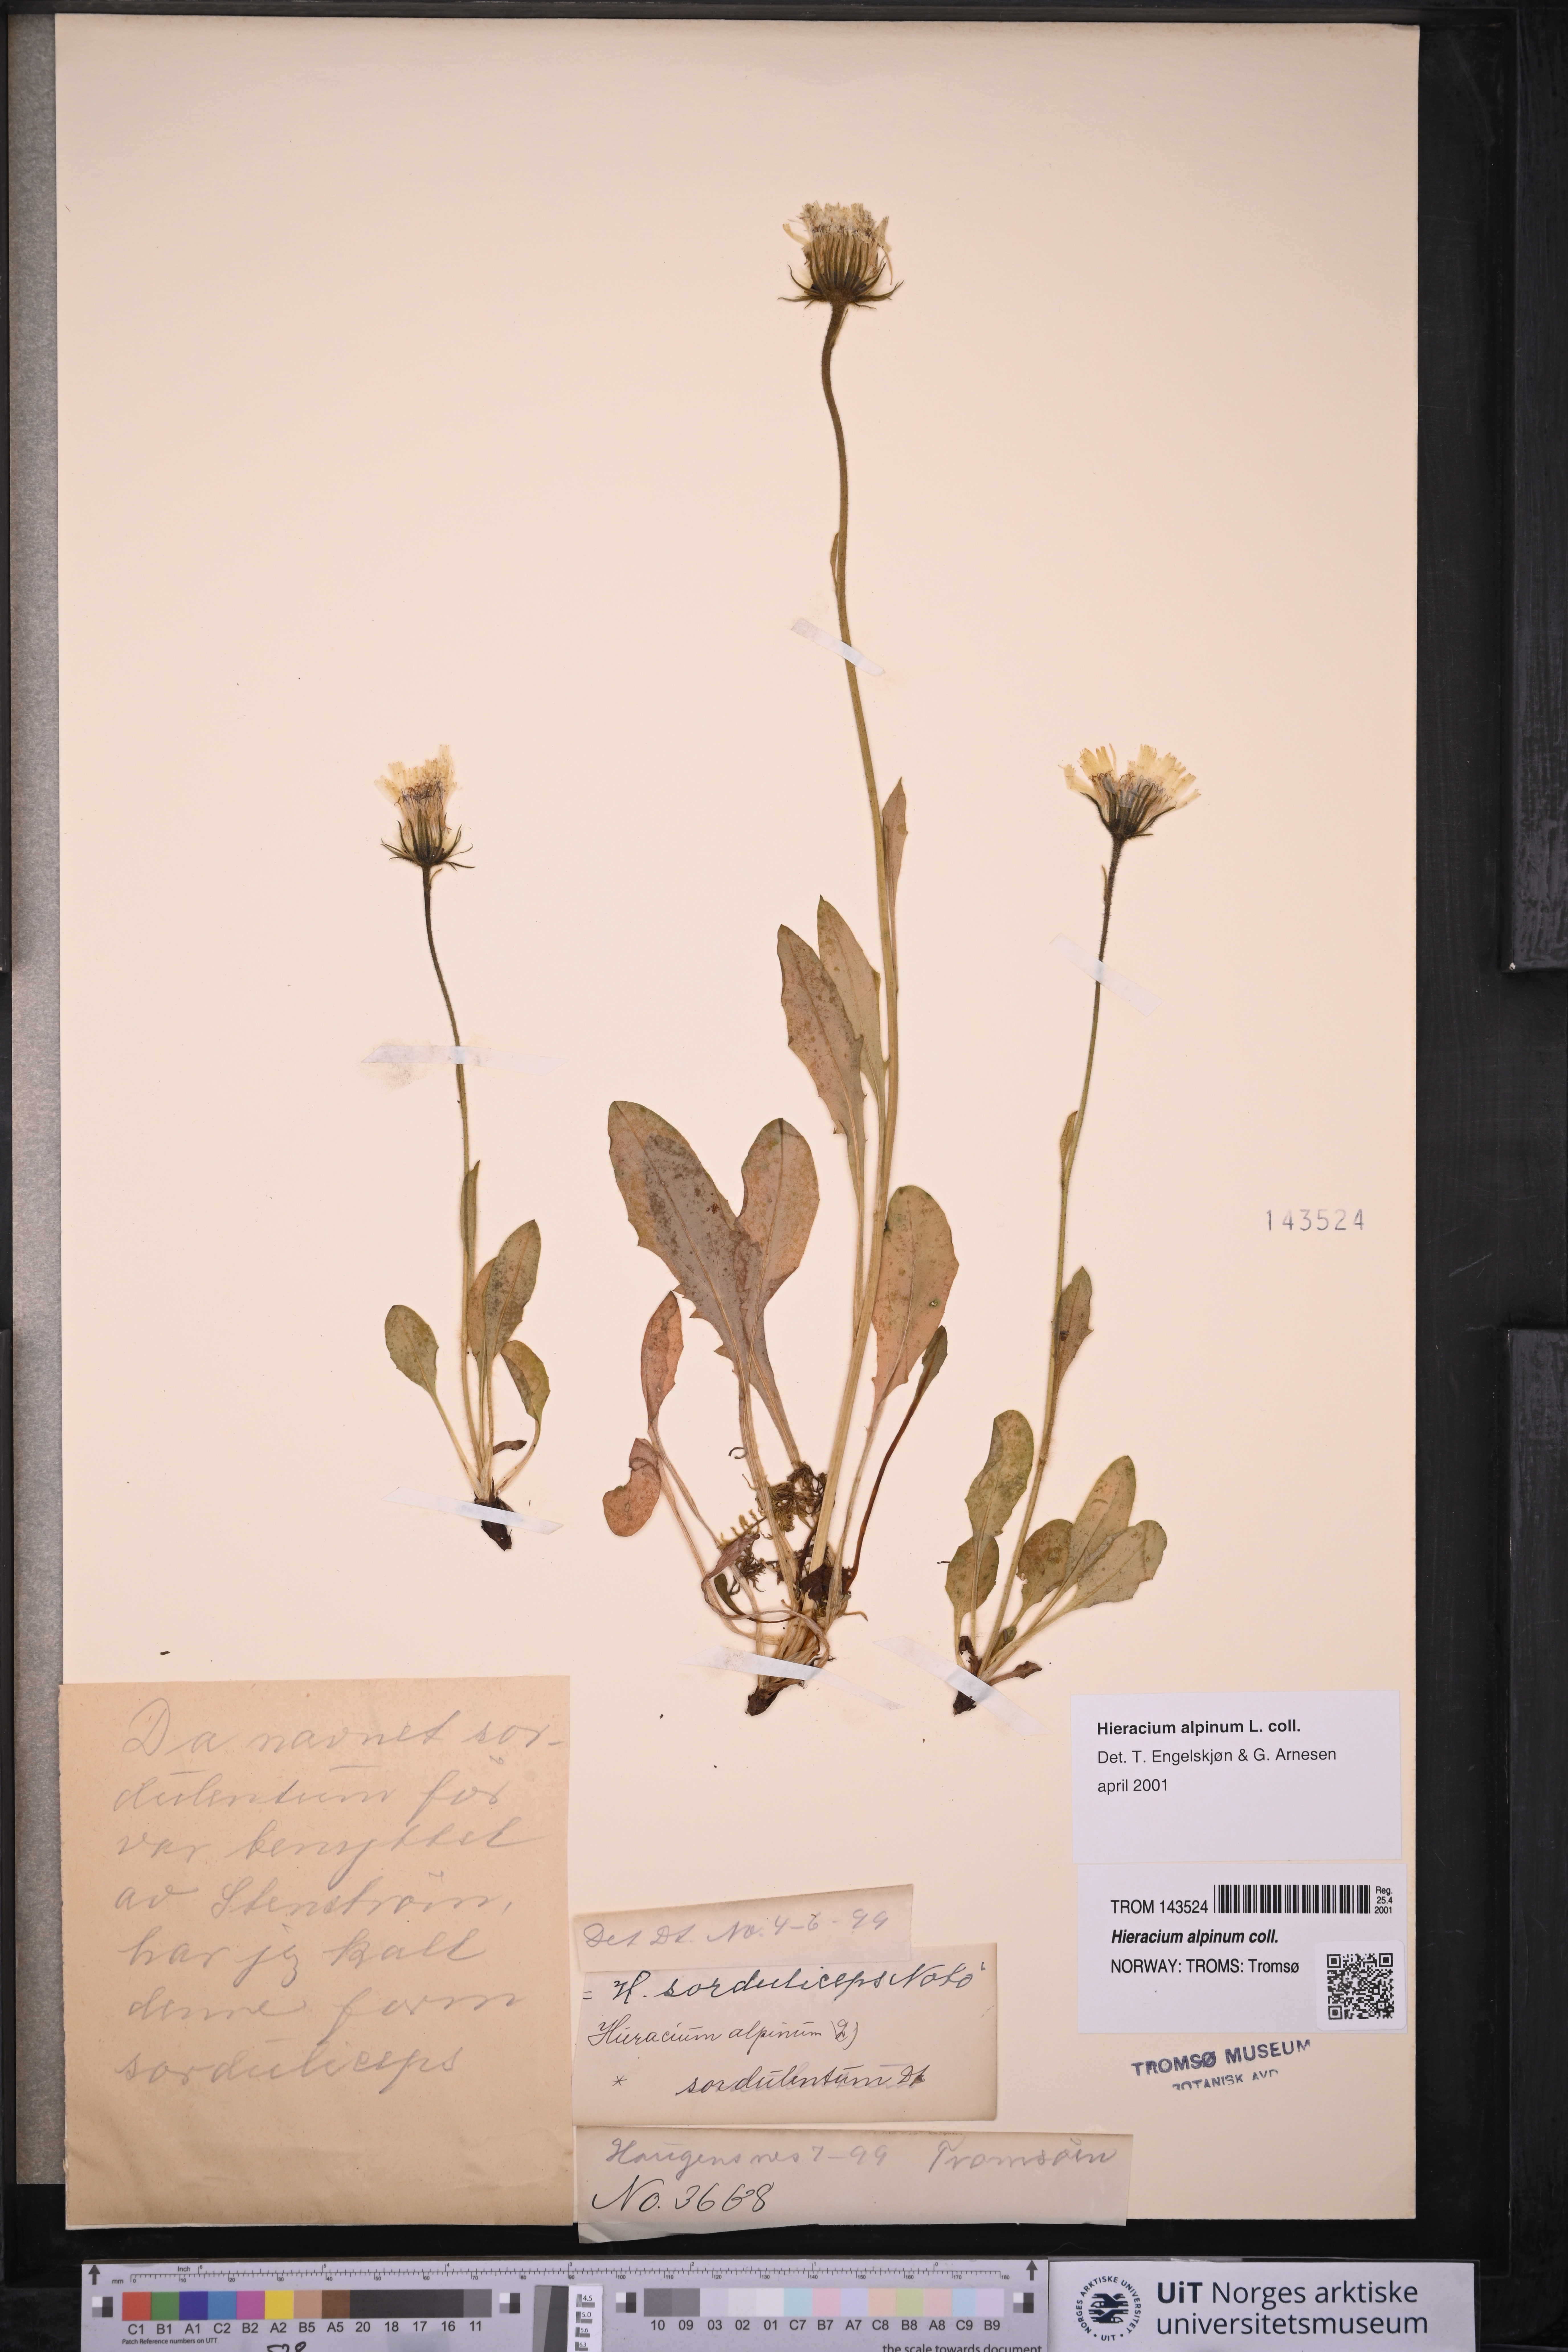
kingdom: Plantae
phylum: Tracheophyta
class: Magnoliopsida
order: Asterales
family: Asteraceae
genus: Hieracium
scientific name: Hieracium alpinum
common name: Alpine hawkweed
